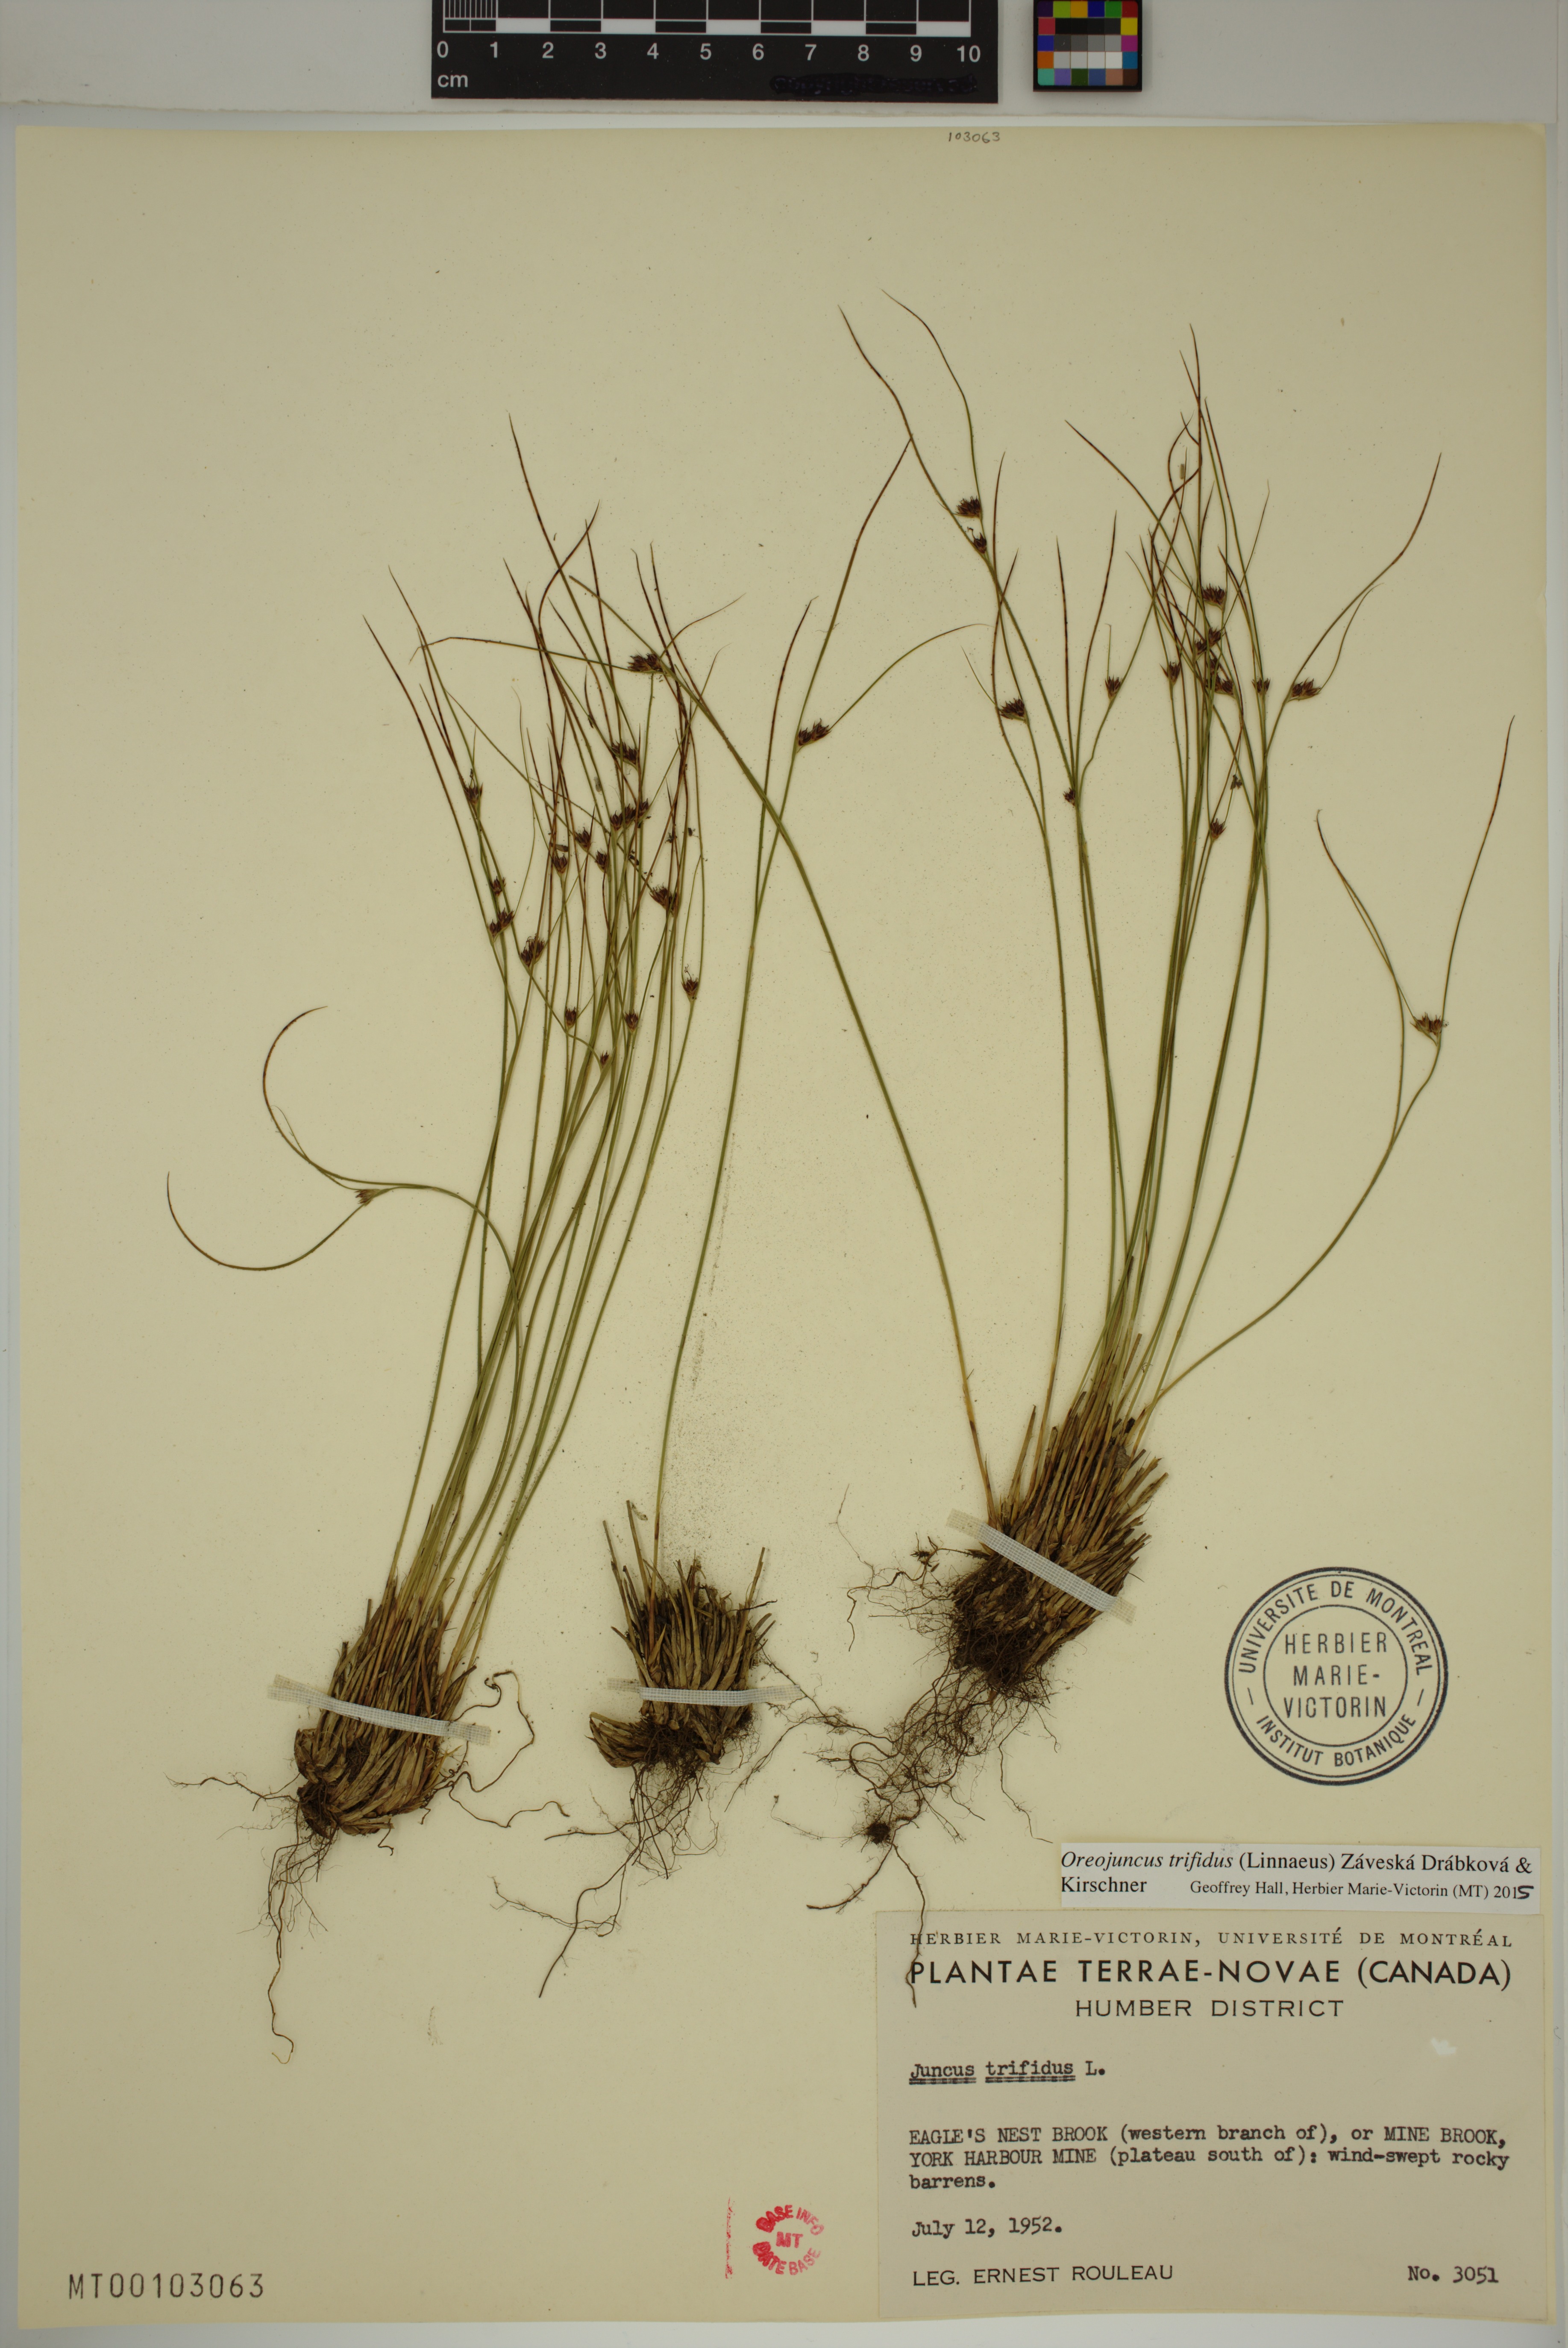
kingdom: Plantae
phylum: Tracheophyta
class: Liliopsida
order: Poales
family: Juncaceae
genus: Oreojuncus
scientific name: Oreojuncus trifidus
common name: Highland rush
